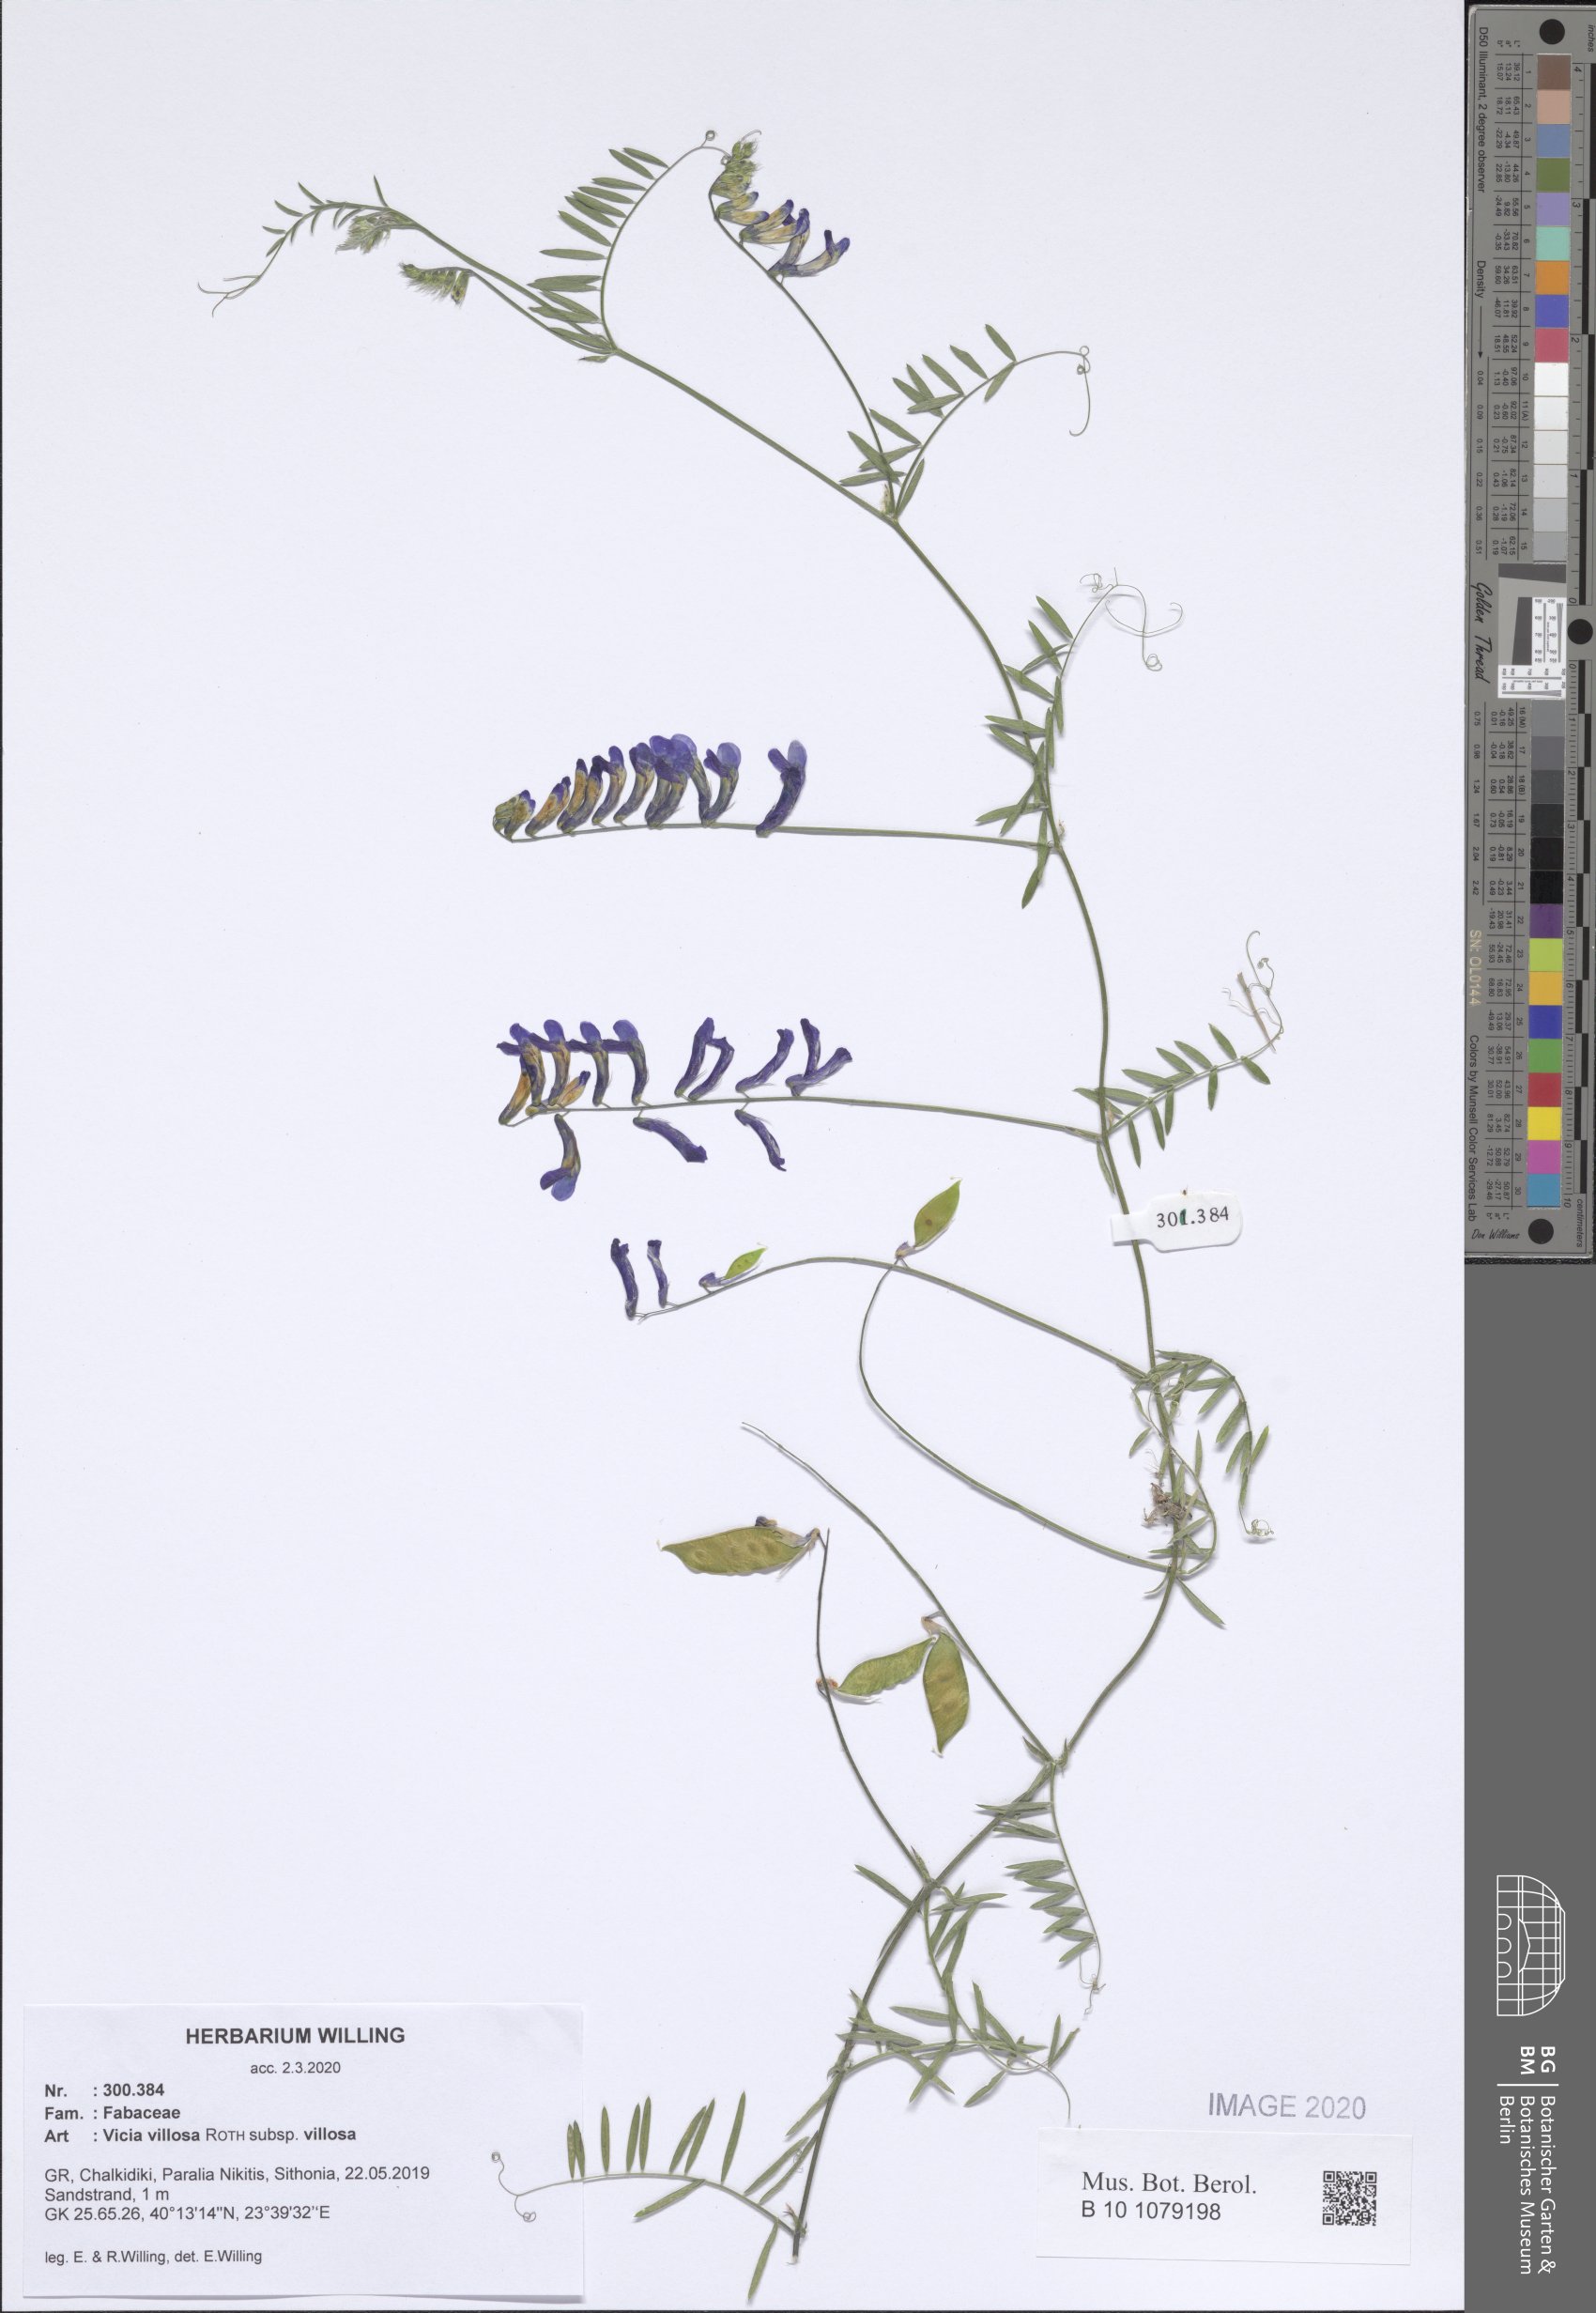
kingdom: Plantae
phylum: Tracheophyta
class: Magnoliopsida
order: Fabales
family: Fabaceae
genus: Vicia
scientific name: Vicia villosa
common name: Fodder vetch
